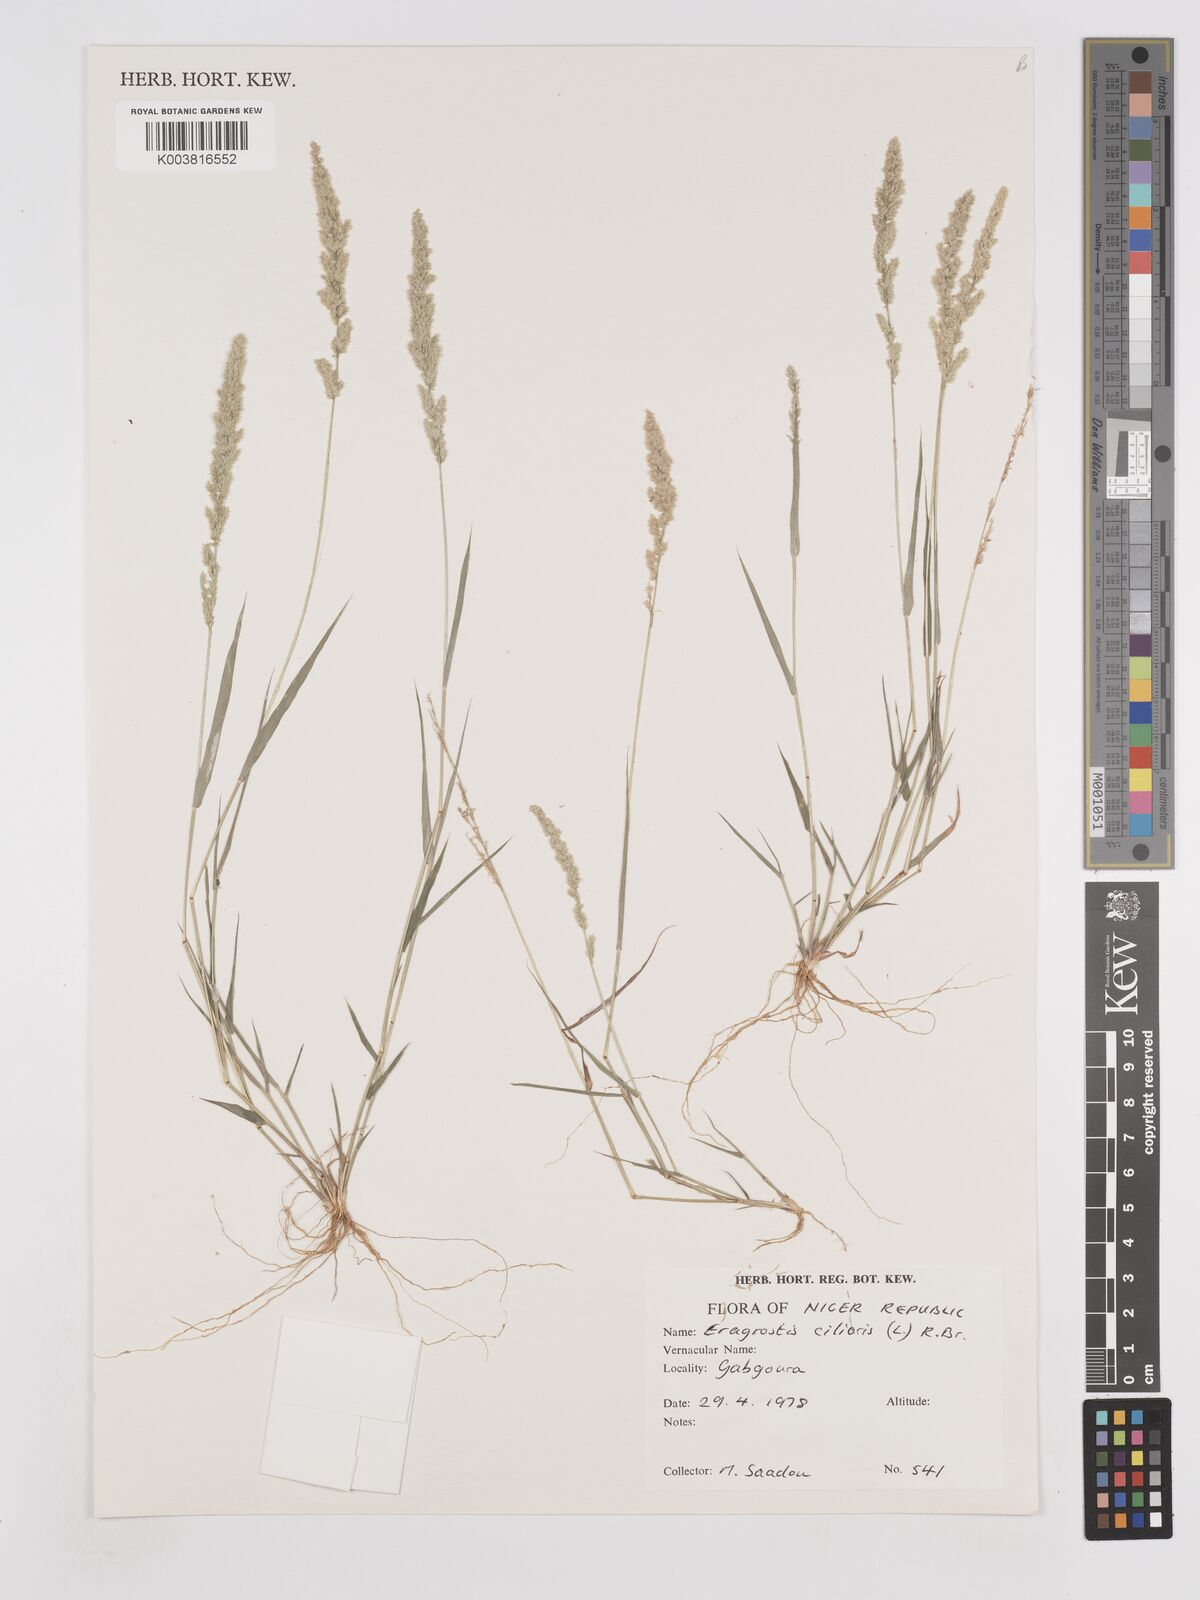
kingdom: Plantae
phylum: Tracheophyta
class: Liliopsida
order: Poales
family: Poaceae
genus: Eragrostis
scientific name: Eragrostis ciliaris
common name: Gophertail lovegrass
